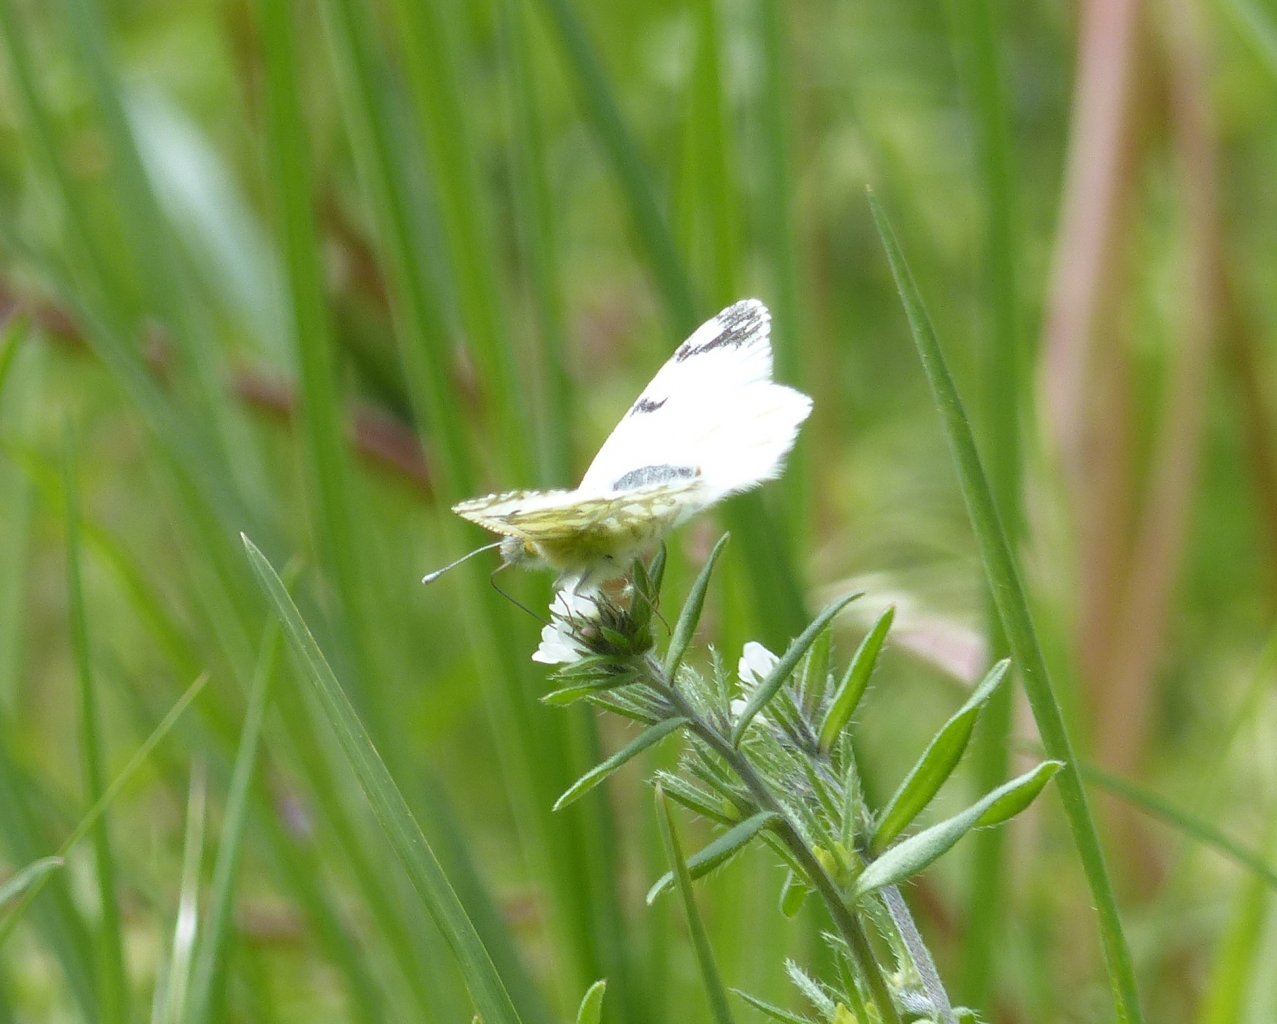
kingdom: Animalia
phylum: Arthropoda
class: Insecta
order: Lepidoptera
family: Pieridae
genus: Euchloe
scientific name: Euchloe ausonides
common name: Large Marble
